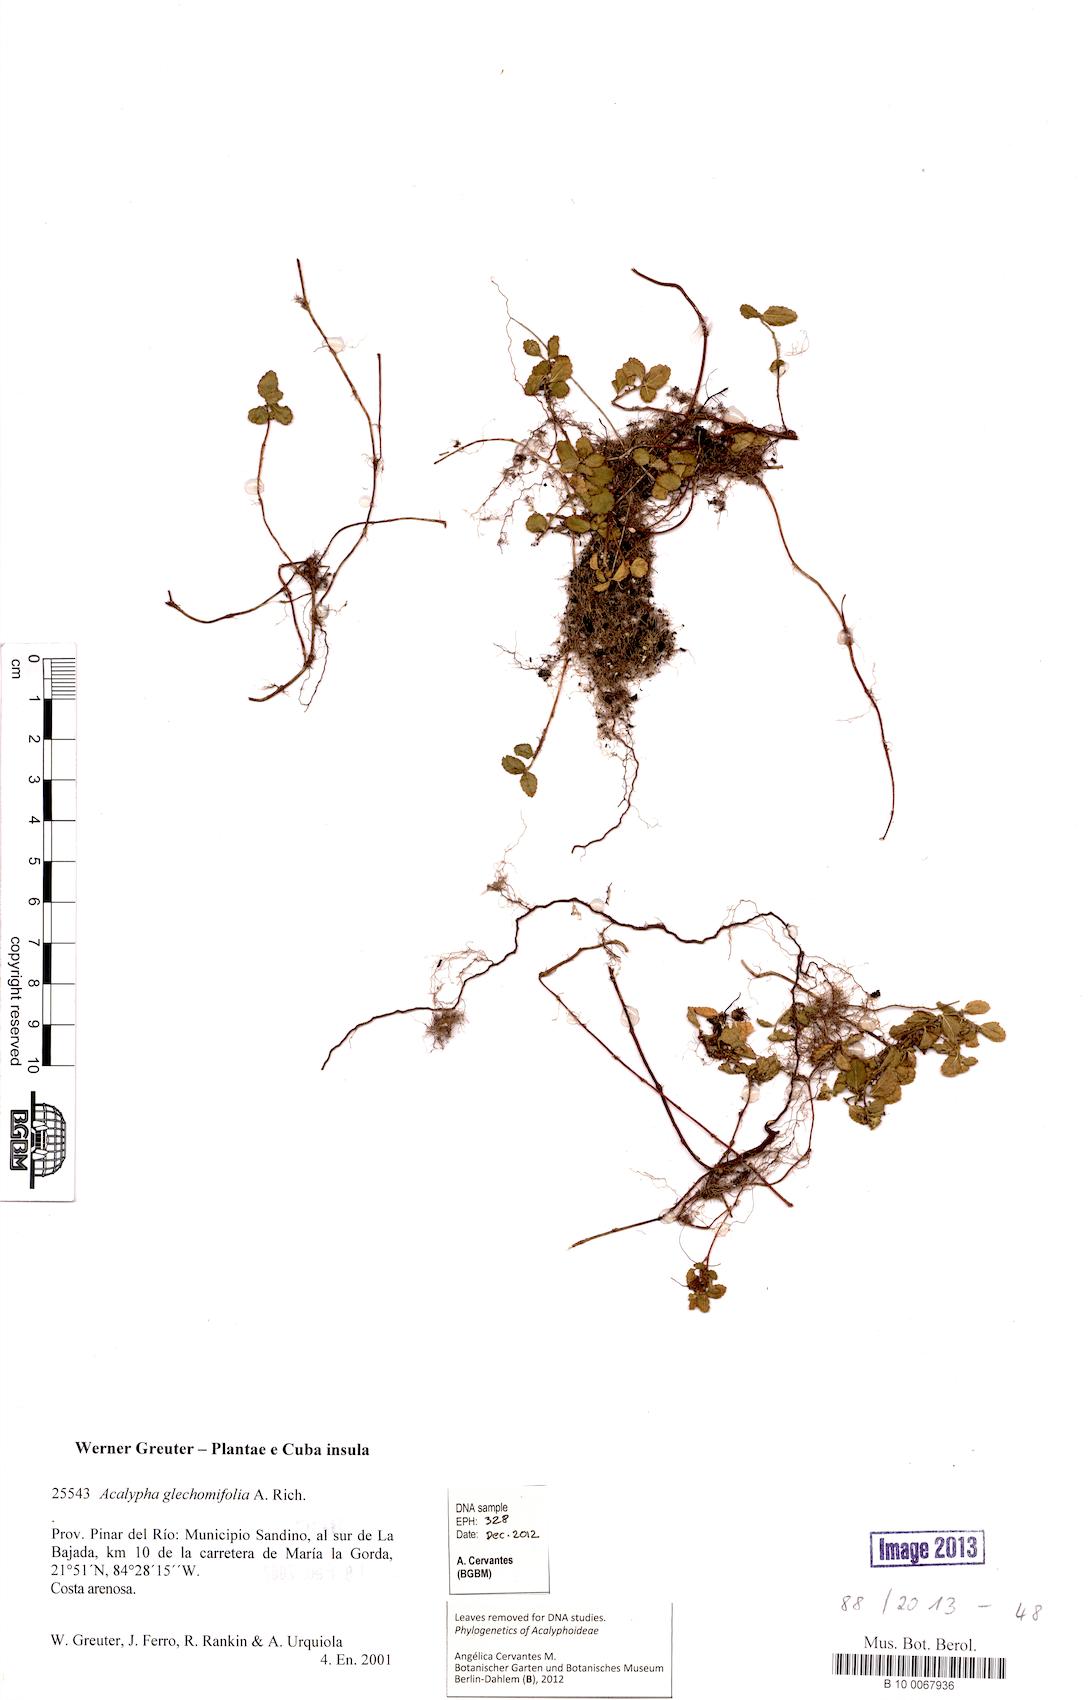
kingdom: Plantae
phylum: Tracheophyta
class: Magnoliopsida
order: Malpighiales
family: Euphorbiaceae
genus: Acalypha
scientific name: Acalypha glechomifolia
